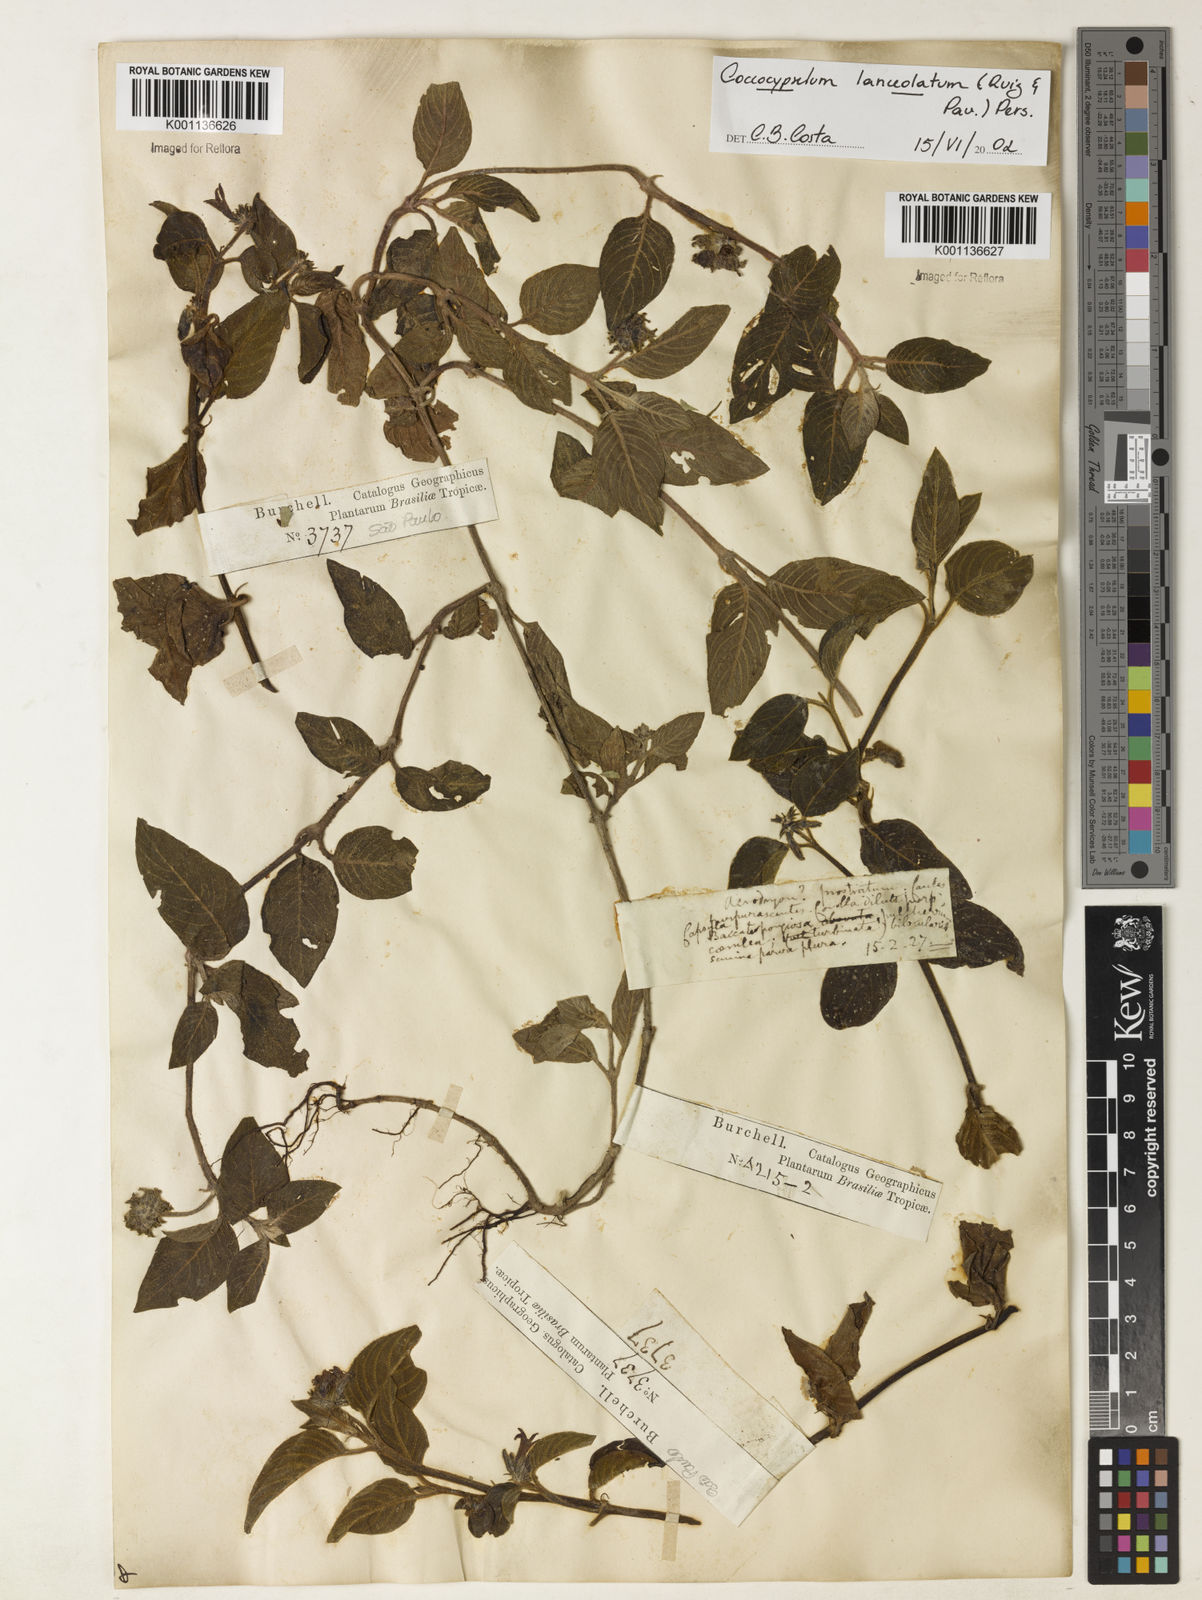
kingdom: Plantae
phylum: Tracheophyta
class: Magnoliopsida
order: Gentianales
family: Rubiaceae
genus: Coccocypselum
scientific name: Coccocypselum lanceolatum
